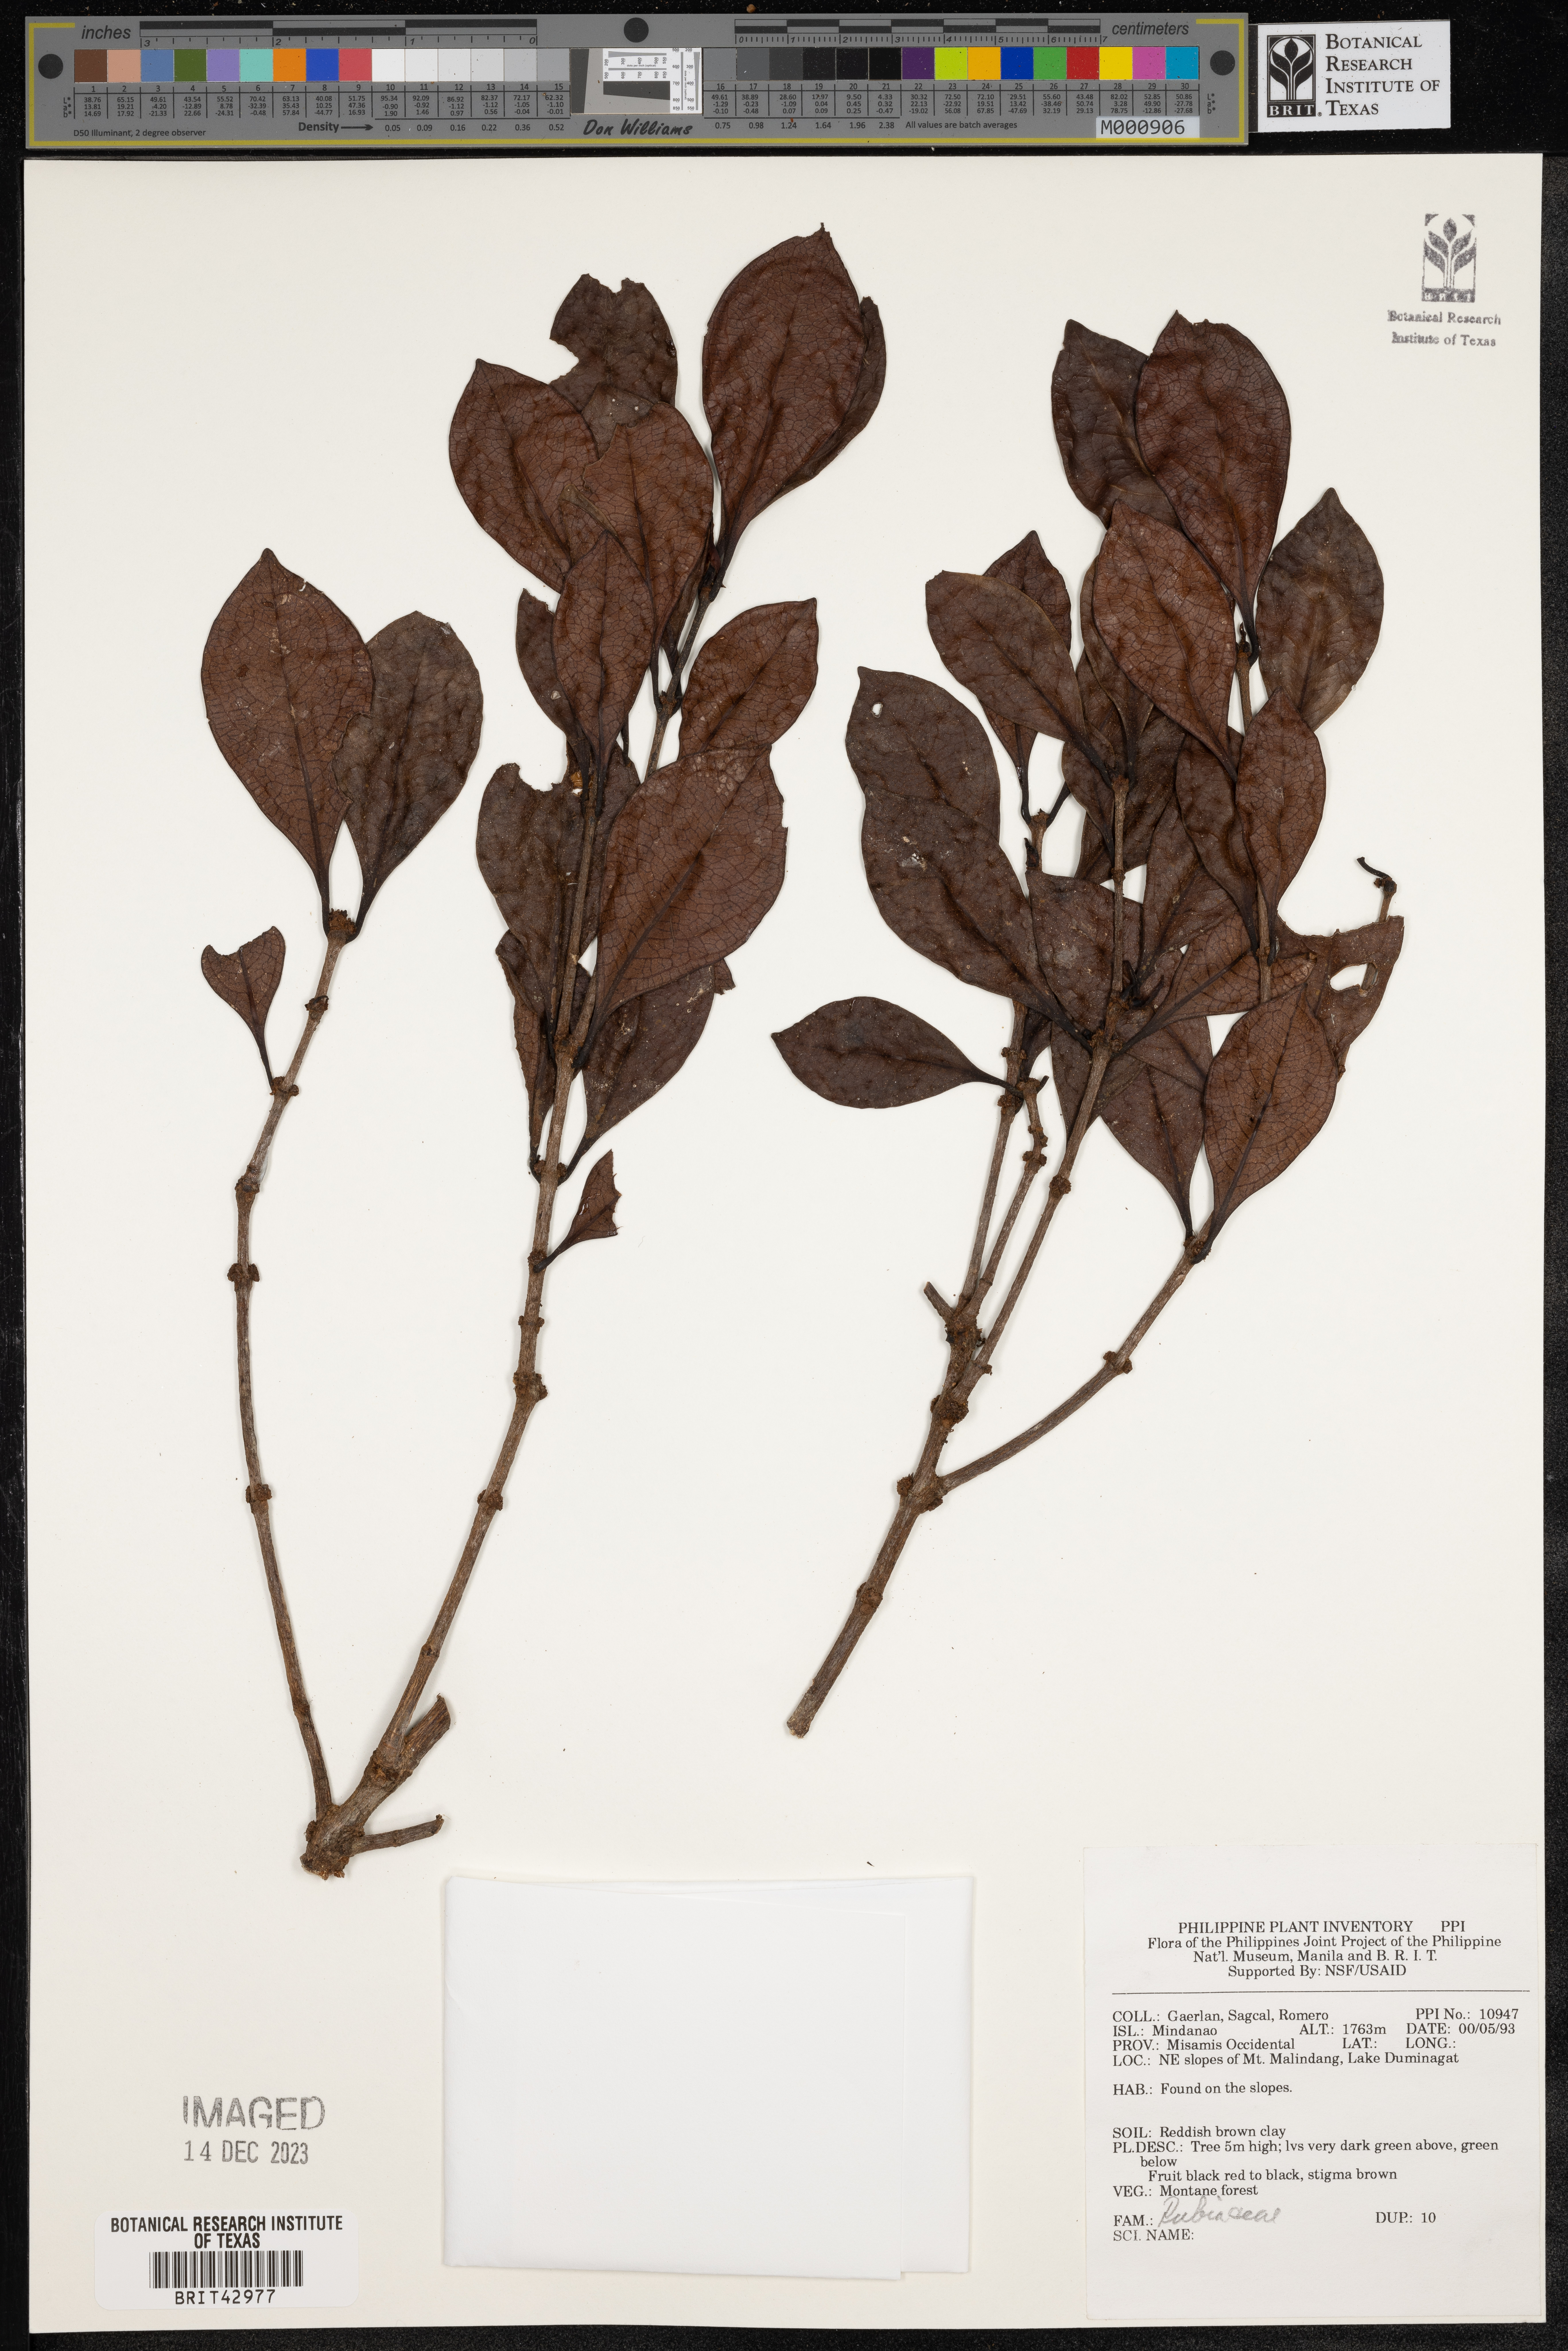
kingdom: Plantae
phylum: Tracheophyta
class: Magnoliopsida
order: Gentianales
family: Rubiaceae
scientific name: Rubiaceae
